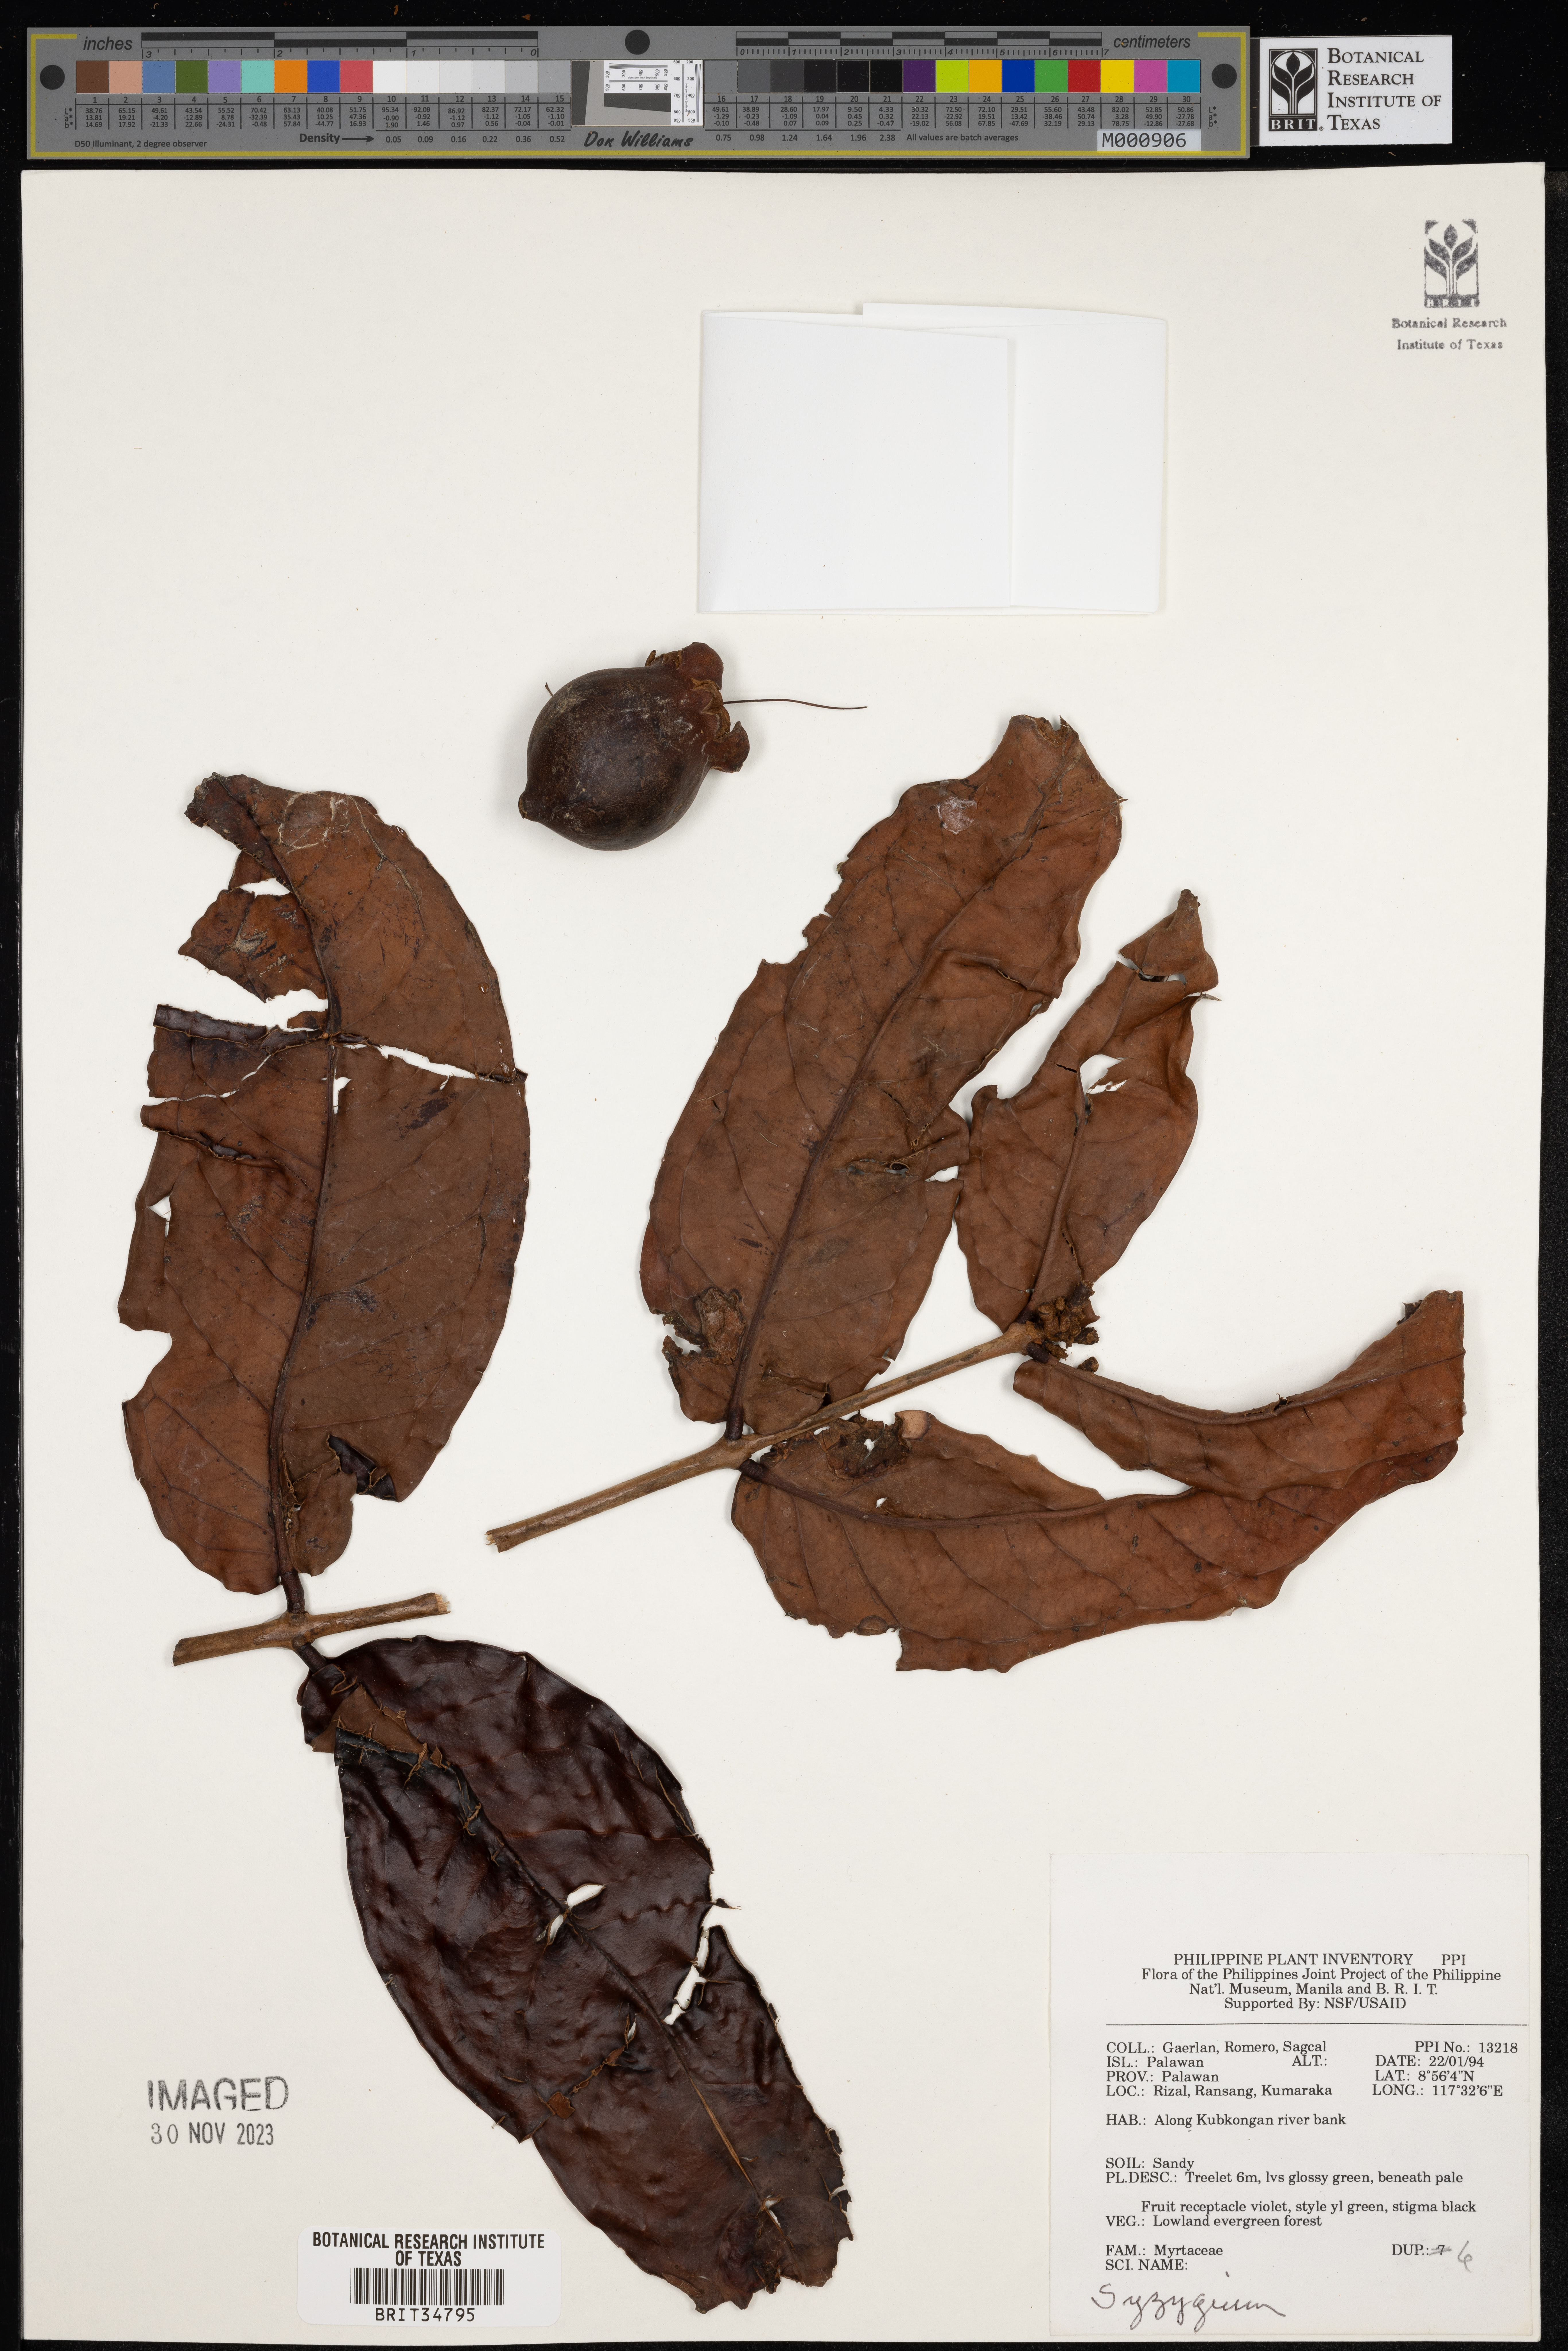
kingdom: Plantae
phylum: Tracheophyta
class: Magnoliopsida
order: Myrtales
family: Myrtaceae
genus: Syzygium
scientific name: Syzygium
